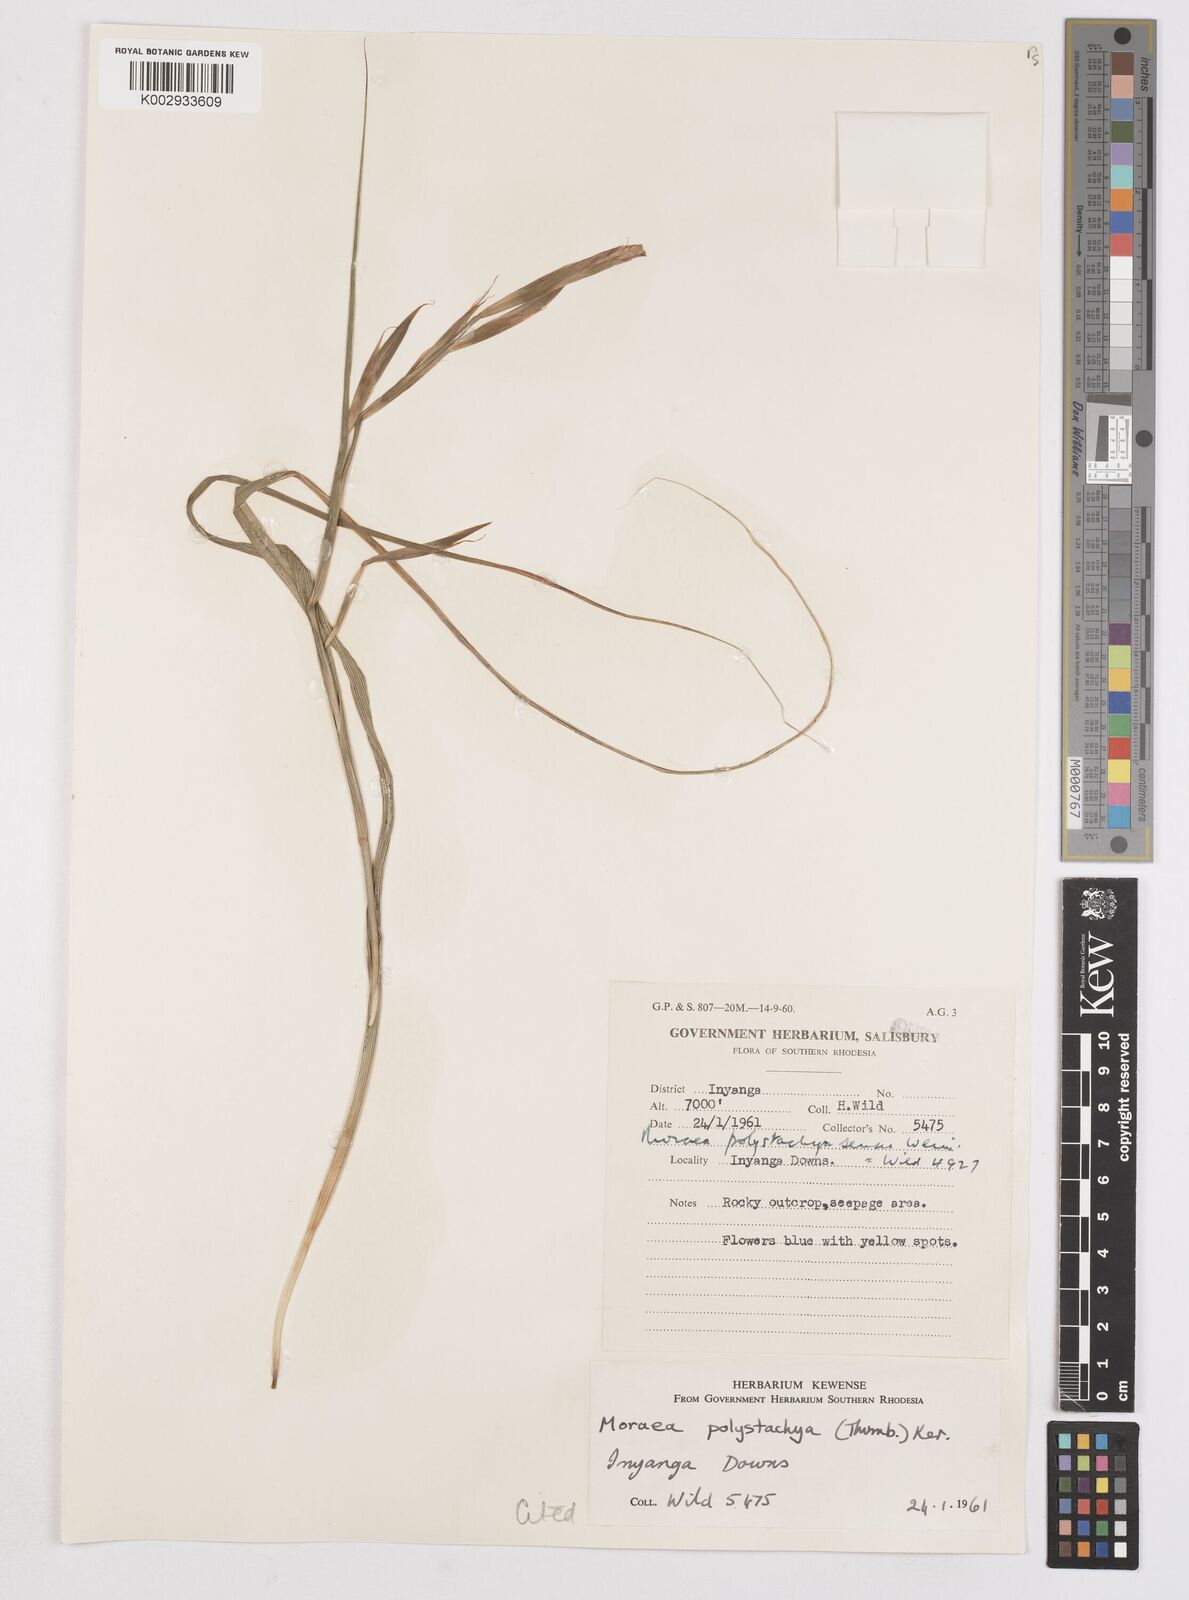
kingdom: Plantae
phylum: Tracheophyta
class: Liliopsida
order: Asparagales
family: Iridaceae
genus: Moraea
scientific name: Moraea carsonii
